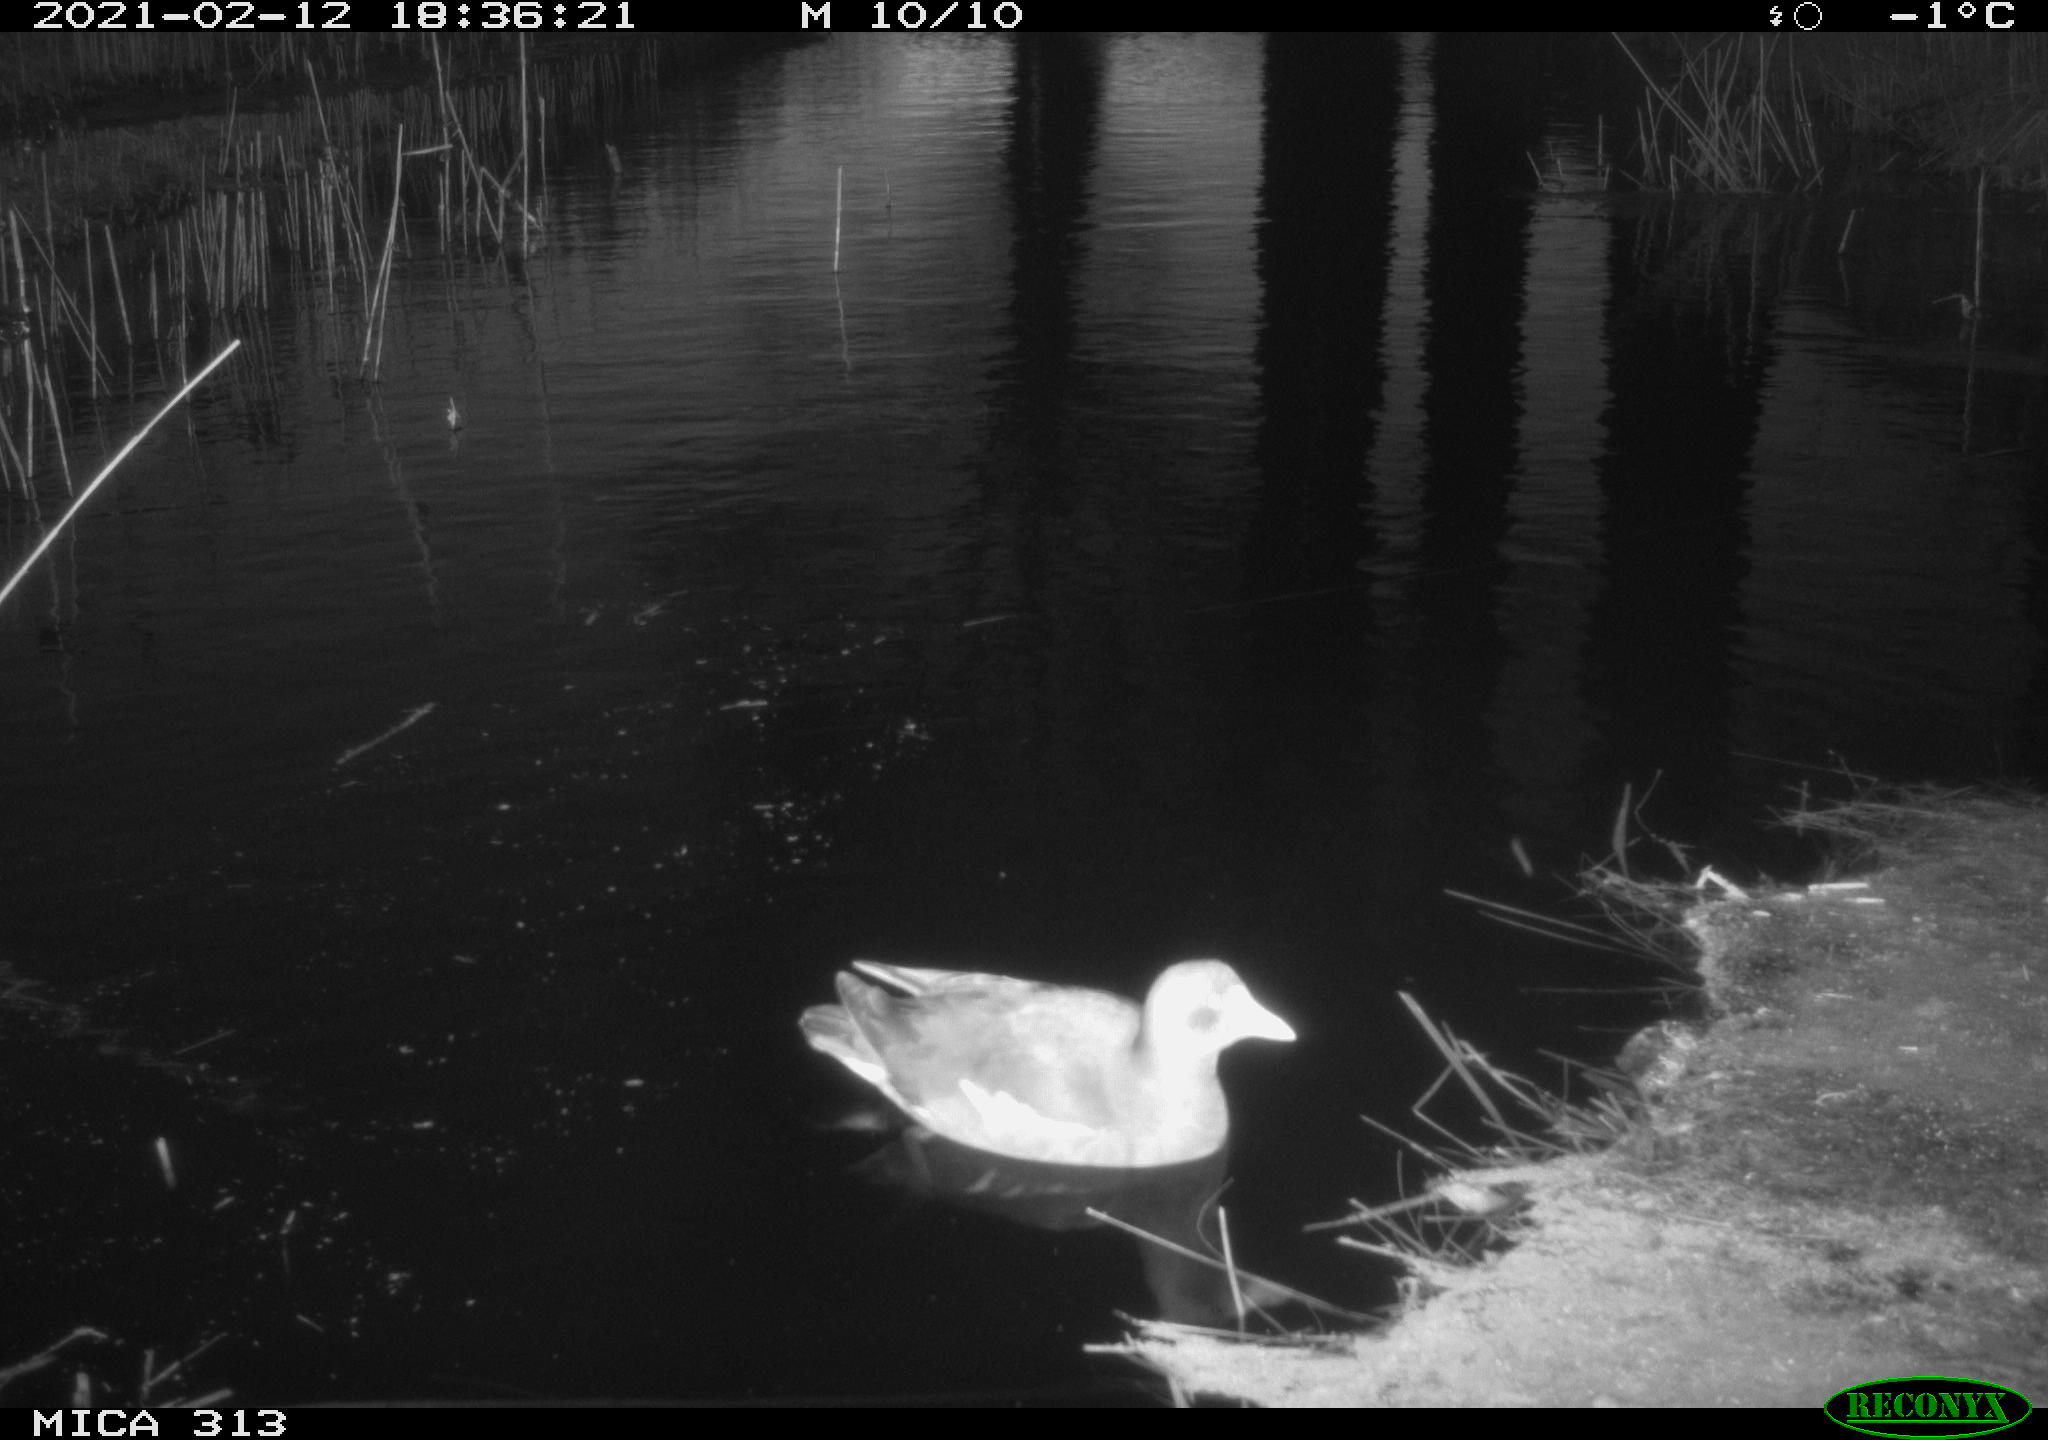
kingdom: Animalia
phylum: Chordata
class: Aves
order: Gruiformes
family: Rallidae
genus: Gallinula
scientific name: Gallinula chloropus
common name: Common moorhen
